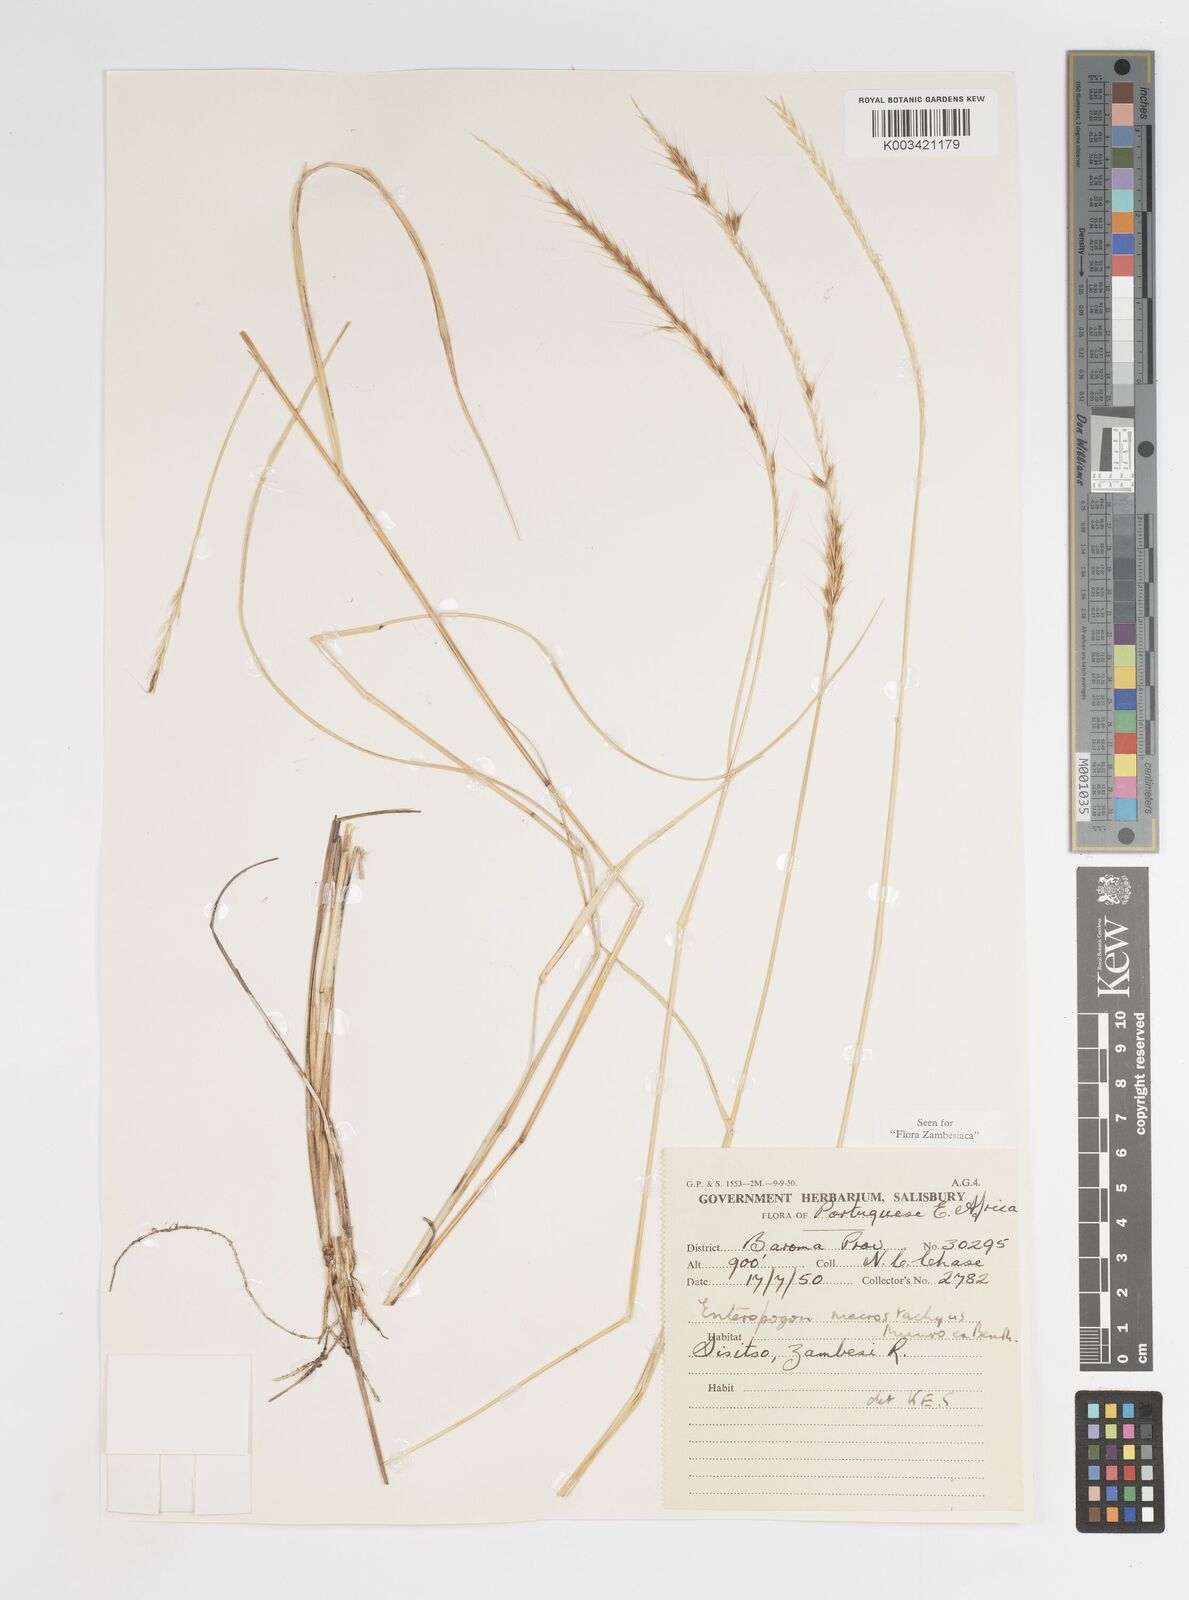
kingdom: Plantae
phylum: Tracheophyta
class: Liliopsida
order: Poales
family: Poaceae
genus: Enteropogon
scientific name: Enteropogon macrostachyus
